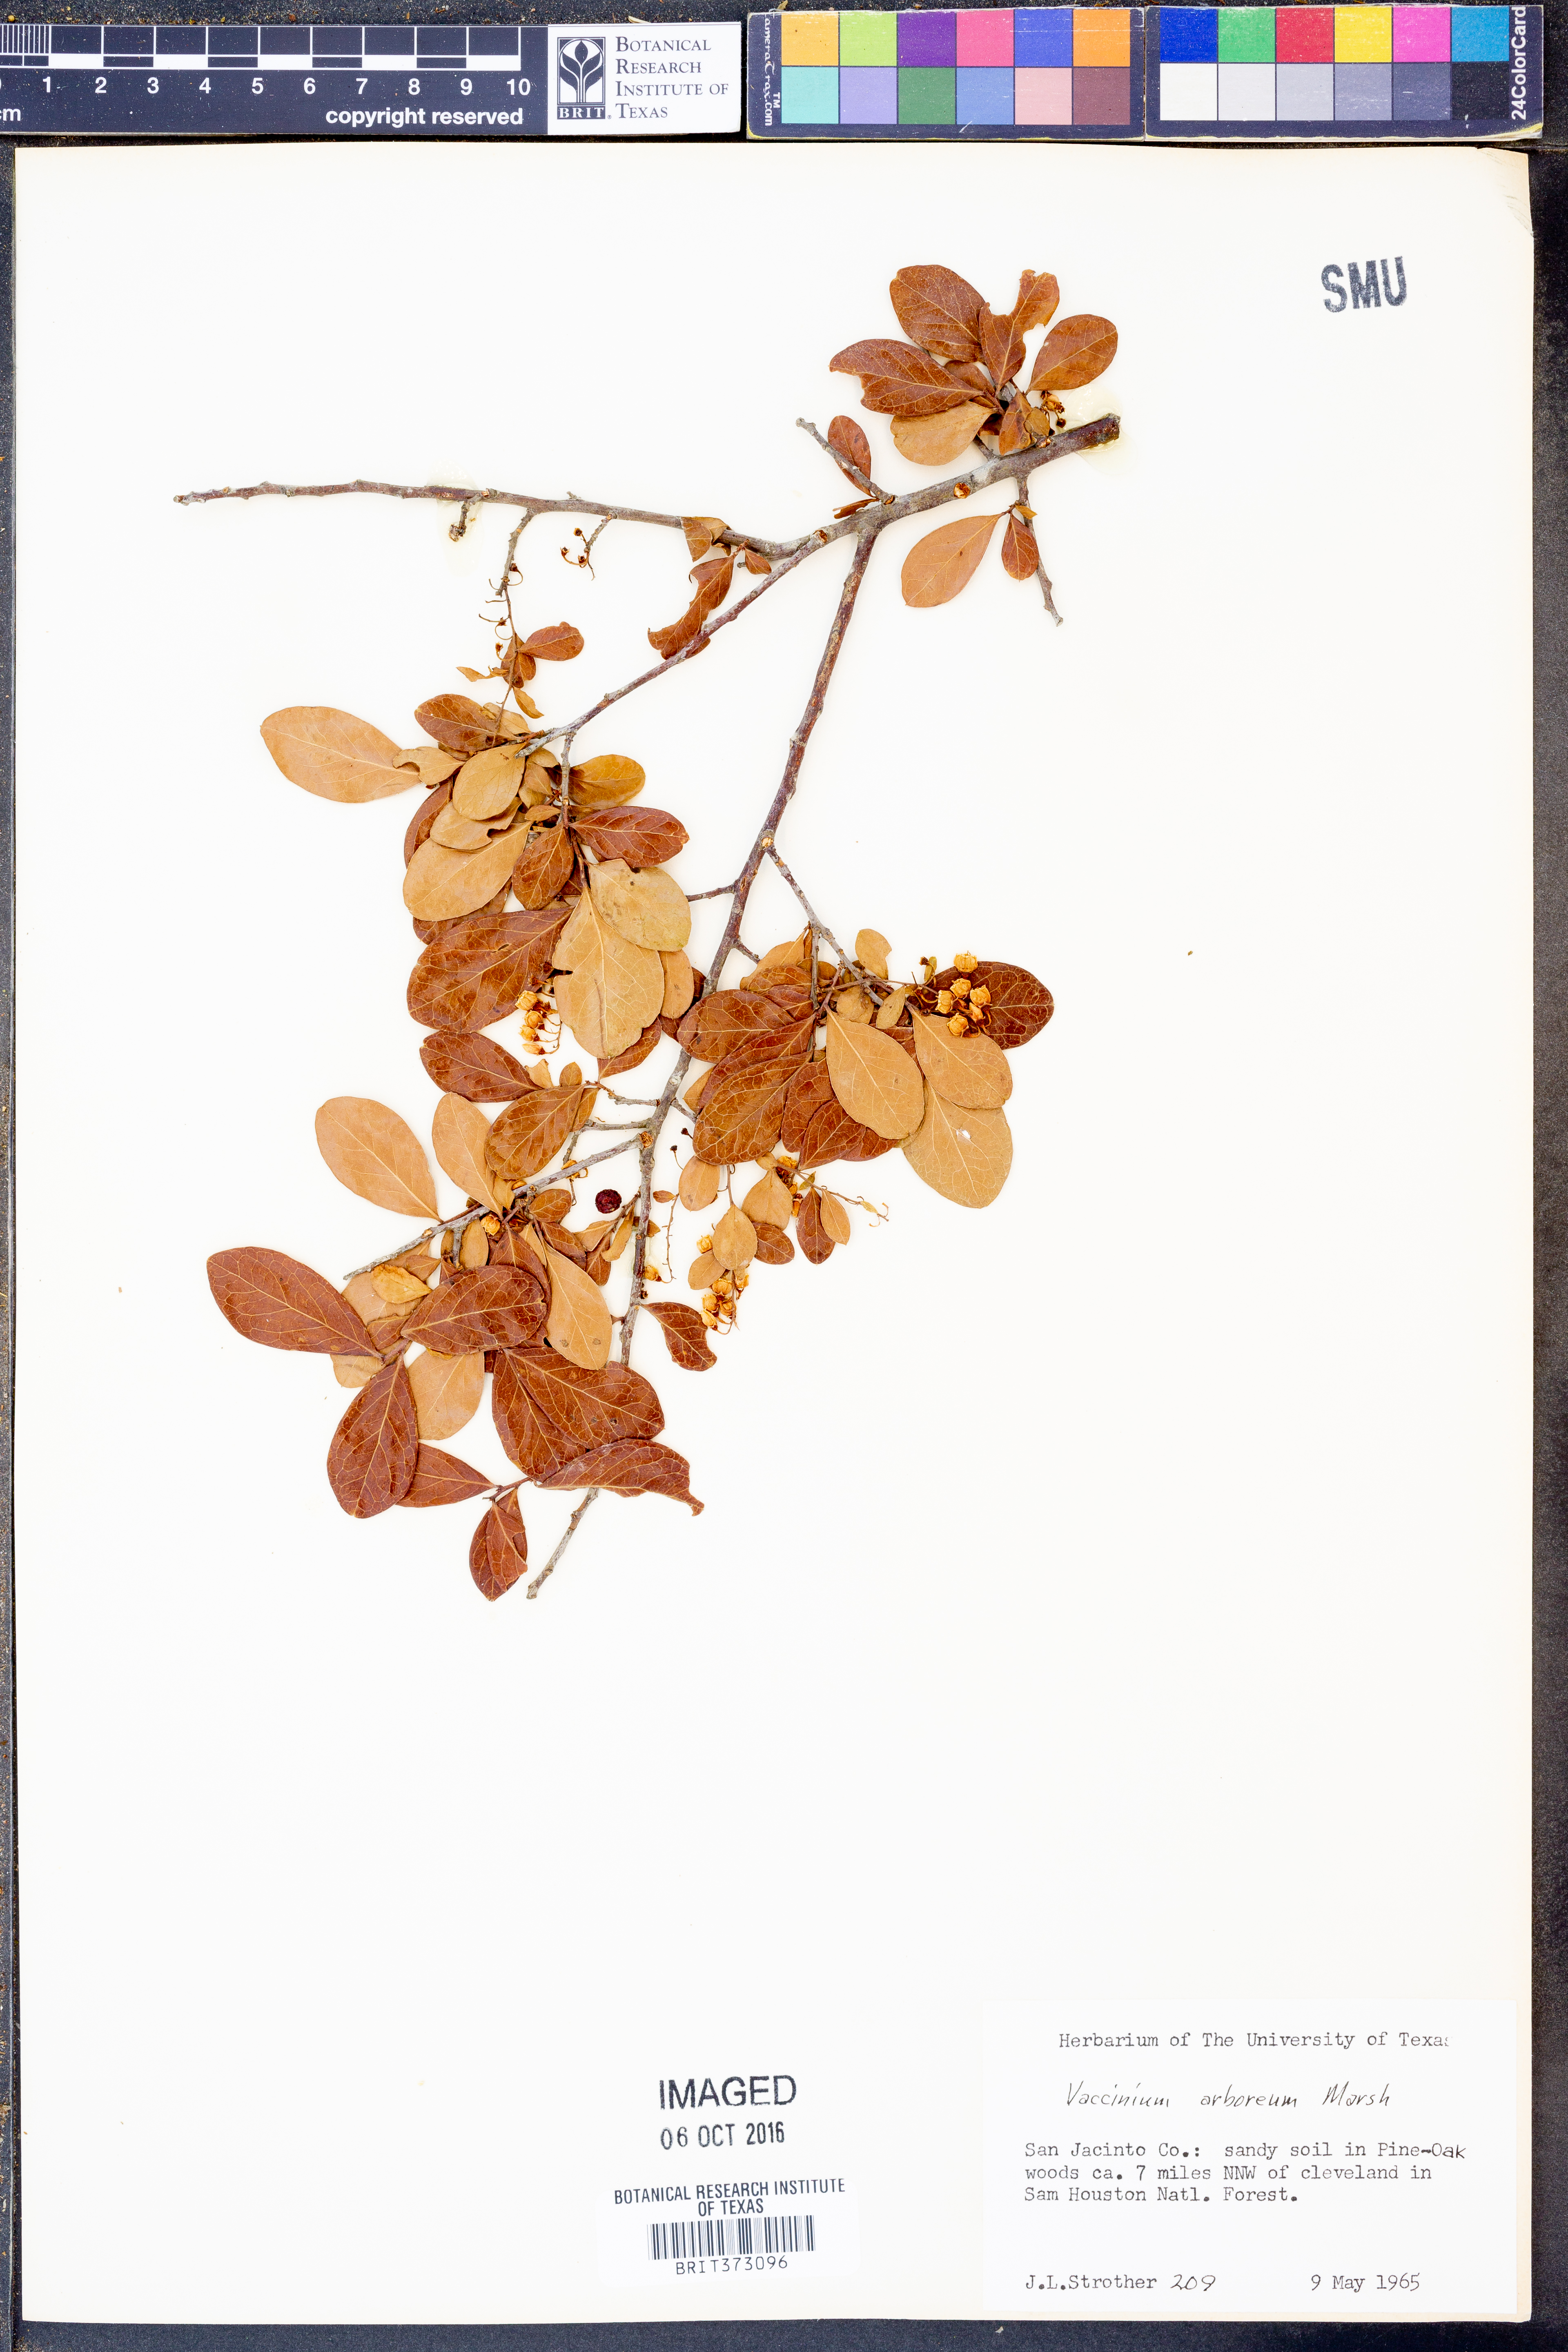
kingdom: Plantae
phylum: Tracheophyta
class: Magnoliopsida
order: Ericales
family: Ericaceae
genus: Vaccinium
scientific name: Vaccinium arboreum
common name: Farkleberry
